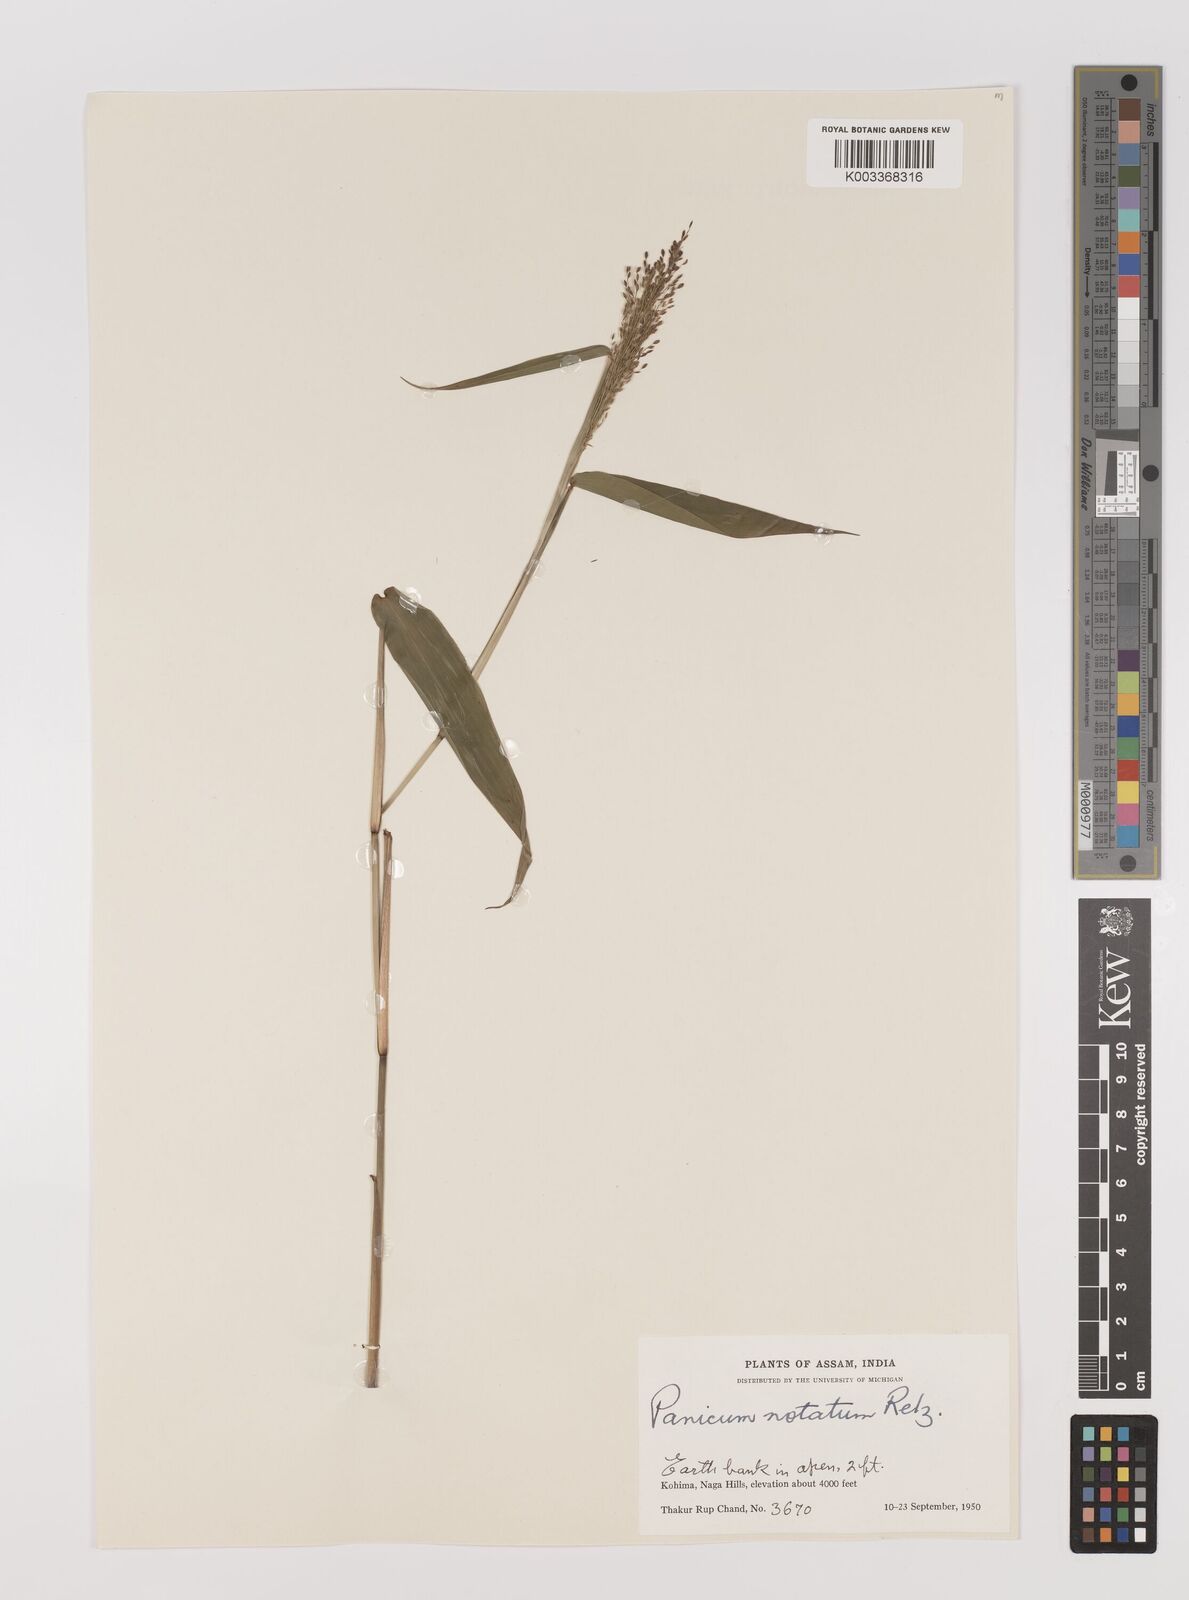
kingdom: Plantae
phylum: Tracheophyta
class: Liliopsida
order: Poales
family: Poaceae
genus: Panicum
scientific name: Panicum notatum
